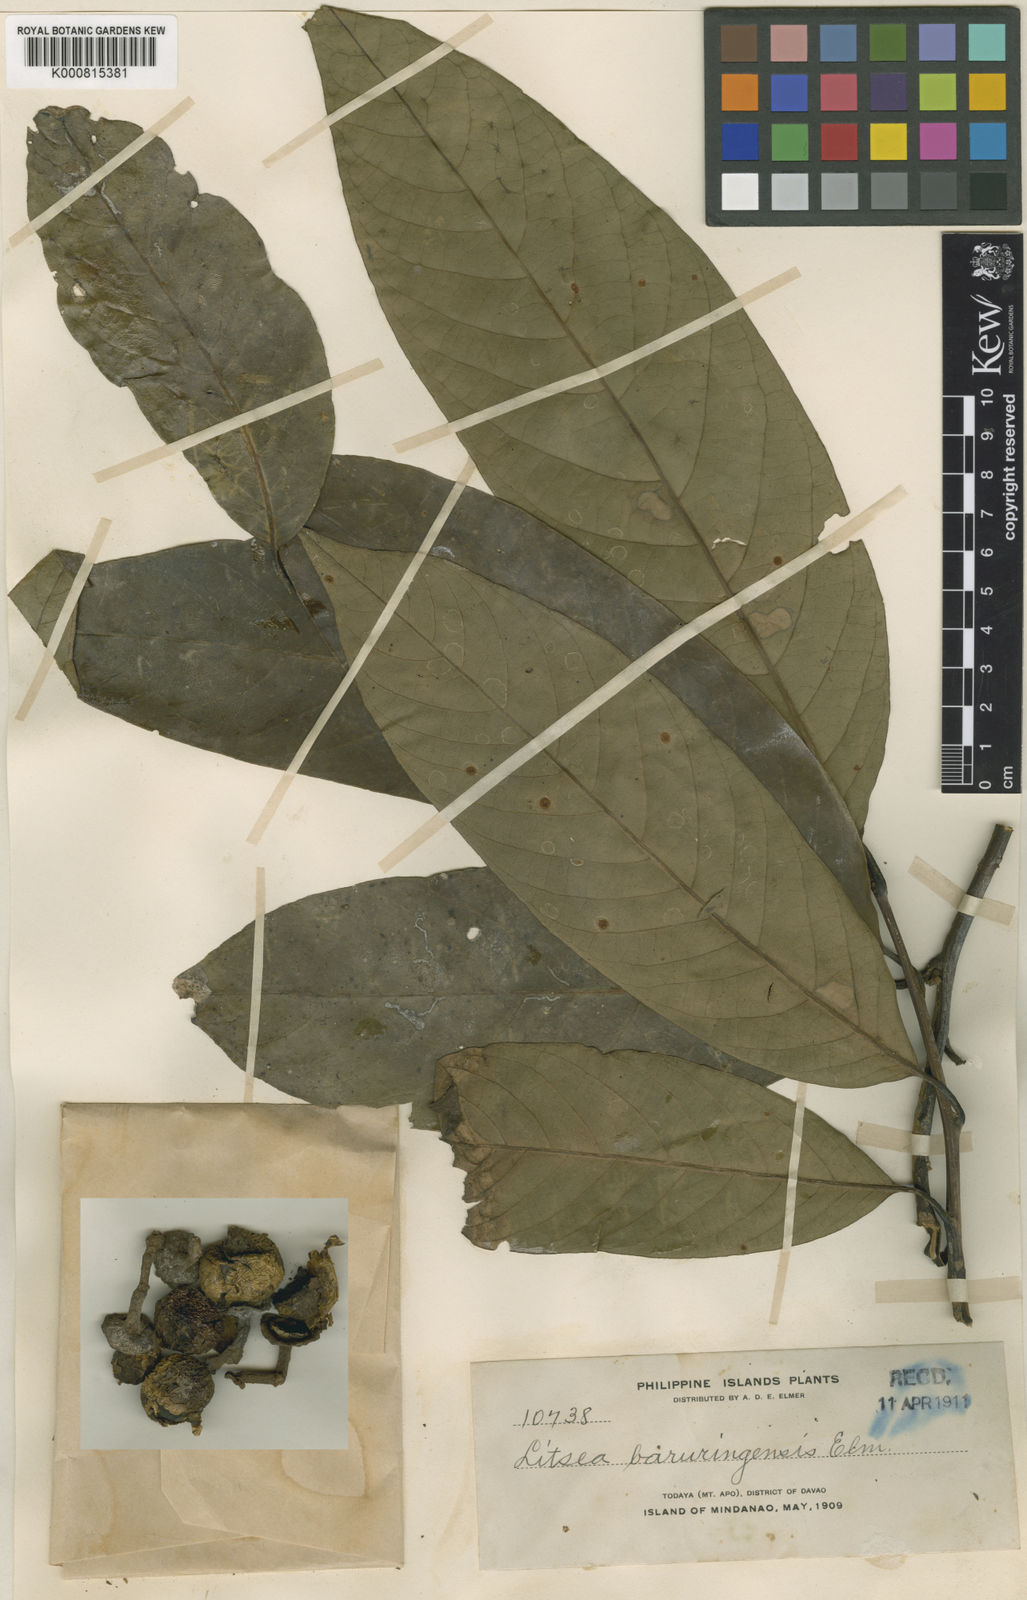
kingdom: Plantae
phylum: Tracheophyta
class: Magnoliopsida
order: Laurales
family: Lauraceae
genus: Litsea
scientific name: Litsea baruringensis
